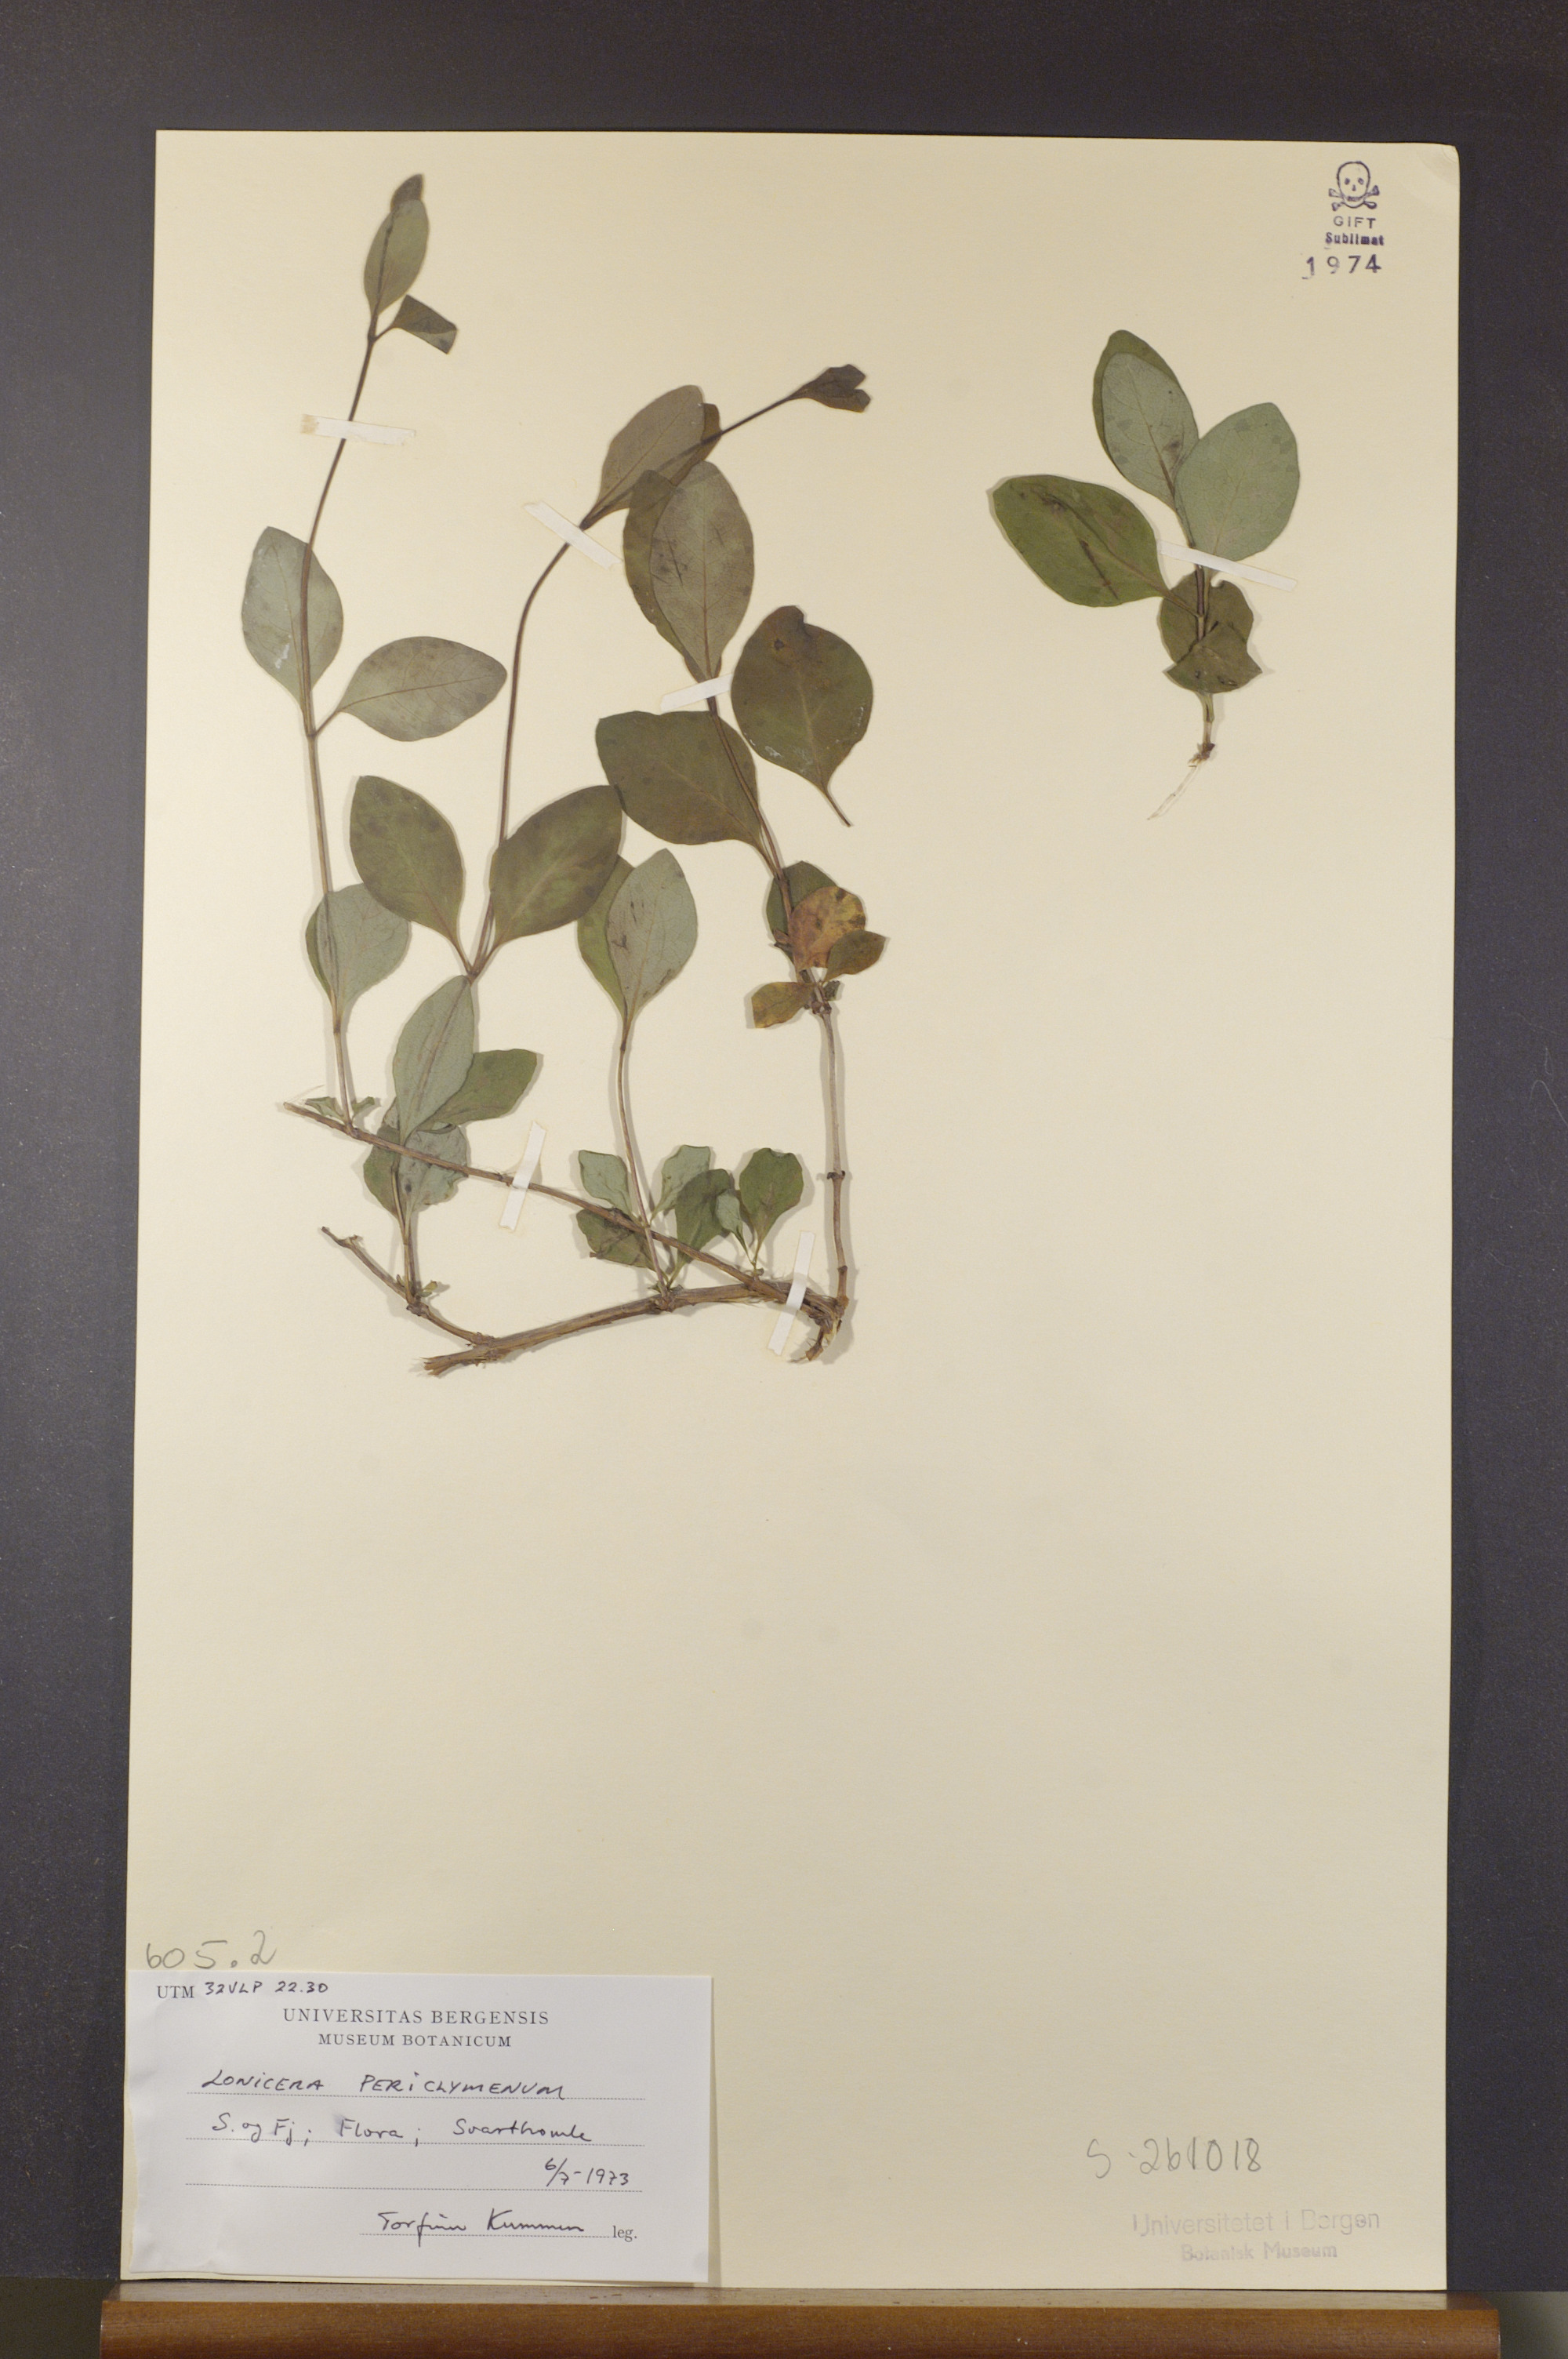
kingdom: Plantae
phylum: Tracheophyta
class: Magnoliopsida
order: Dipsacales
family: Caprifoliaceae
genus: Lonicera
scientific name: Lonicera periclymenum
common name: European honeysuckle
